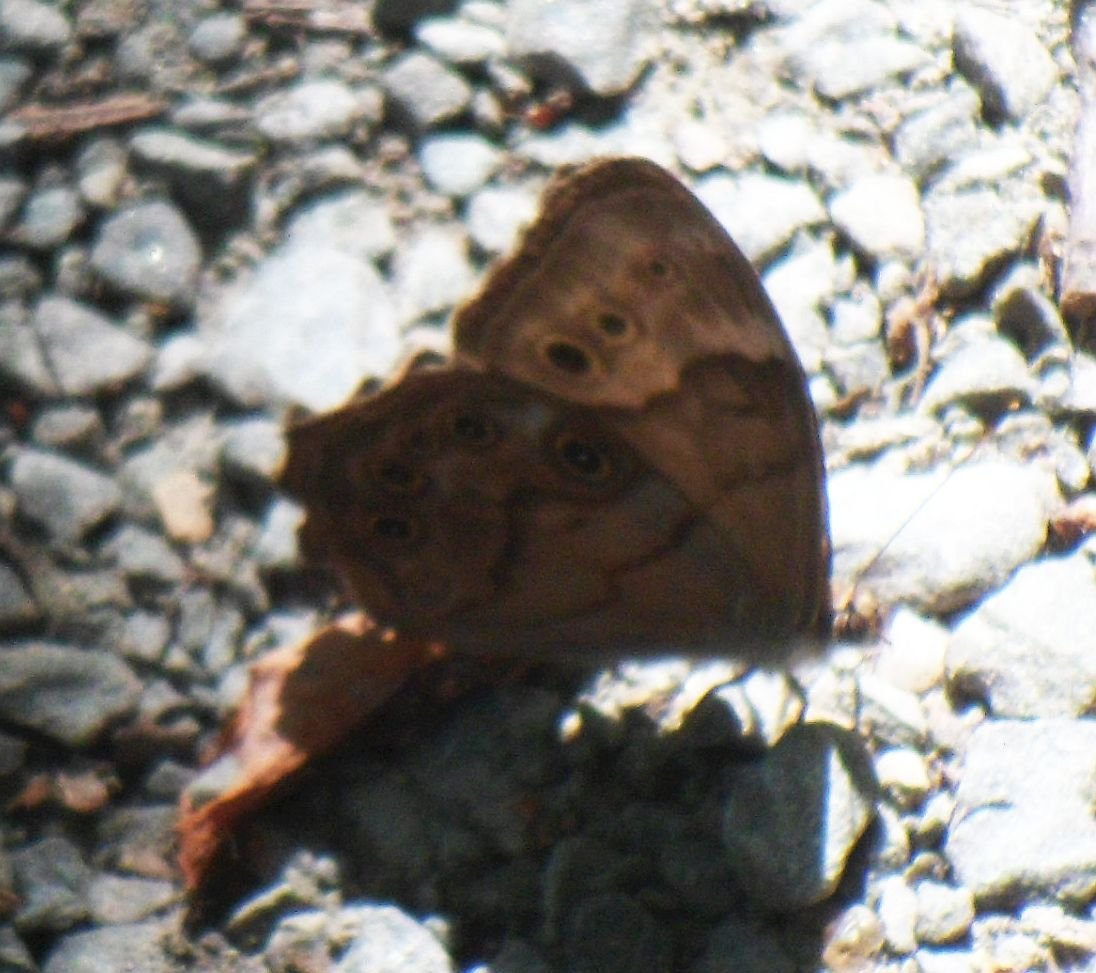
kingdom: Animalia
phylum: Arthropoda
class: Insecta
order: Lepidoptera
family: Nymphalidae
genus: Lethe
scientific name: Lethe anthedon
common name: Northern Pearly-Eye
